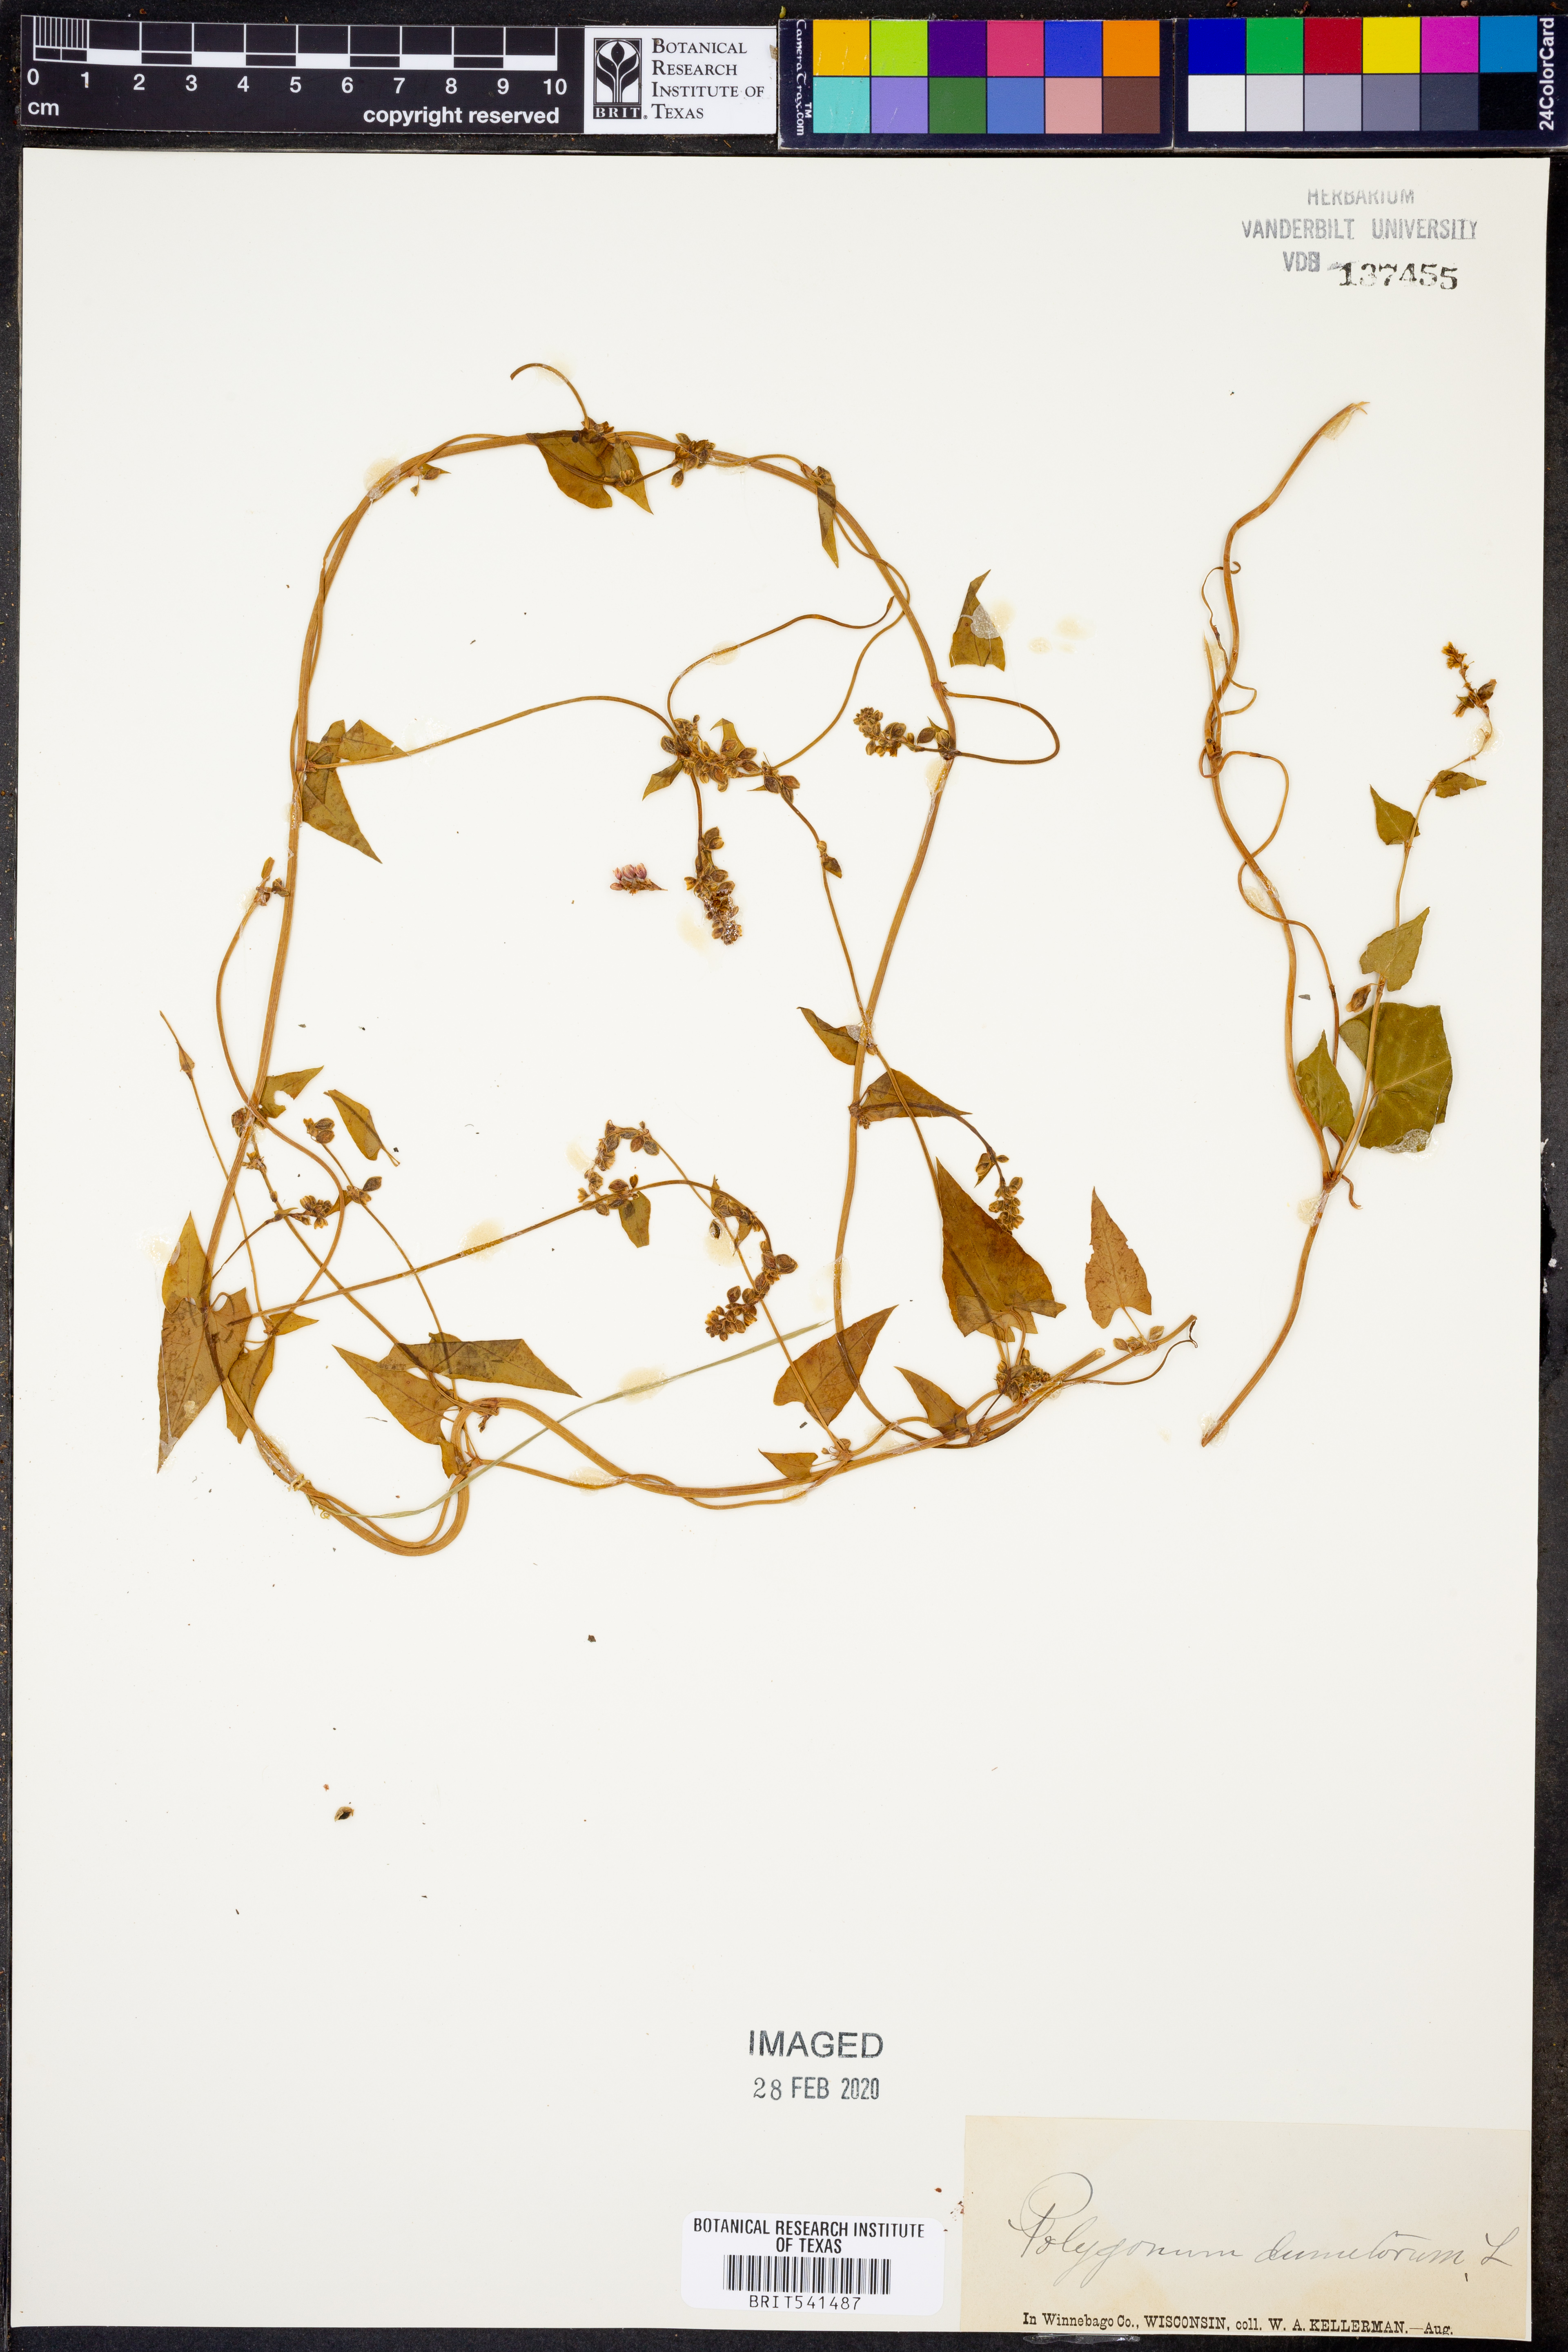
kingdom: Plantae
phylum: Tracheophyta
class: Magnoliopsida
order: Caryophyllales
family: Polygonaceae
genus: Fallopia
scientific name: Fallopia dumetorum
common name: Copse-bindweed
